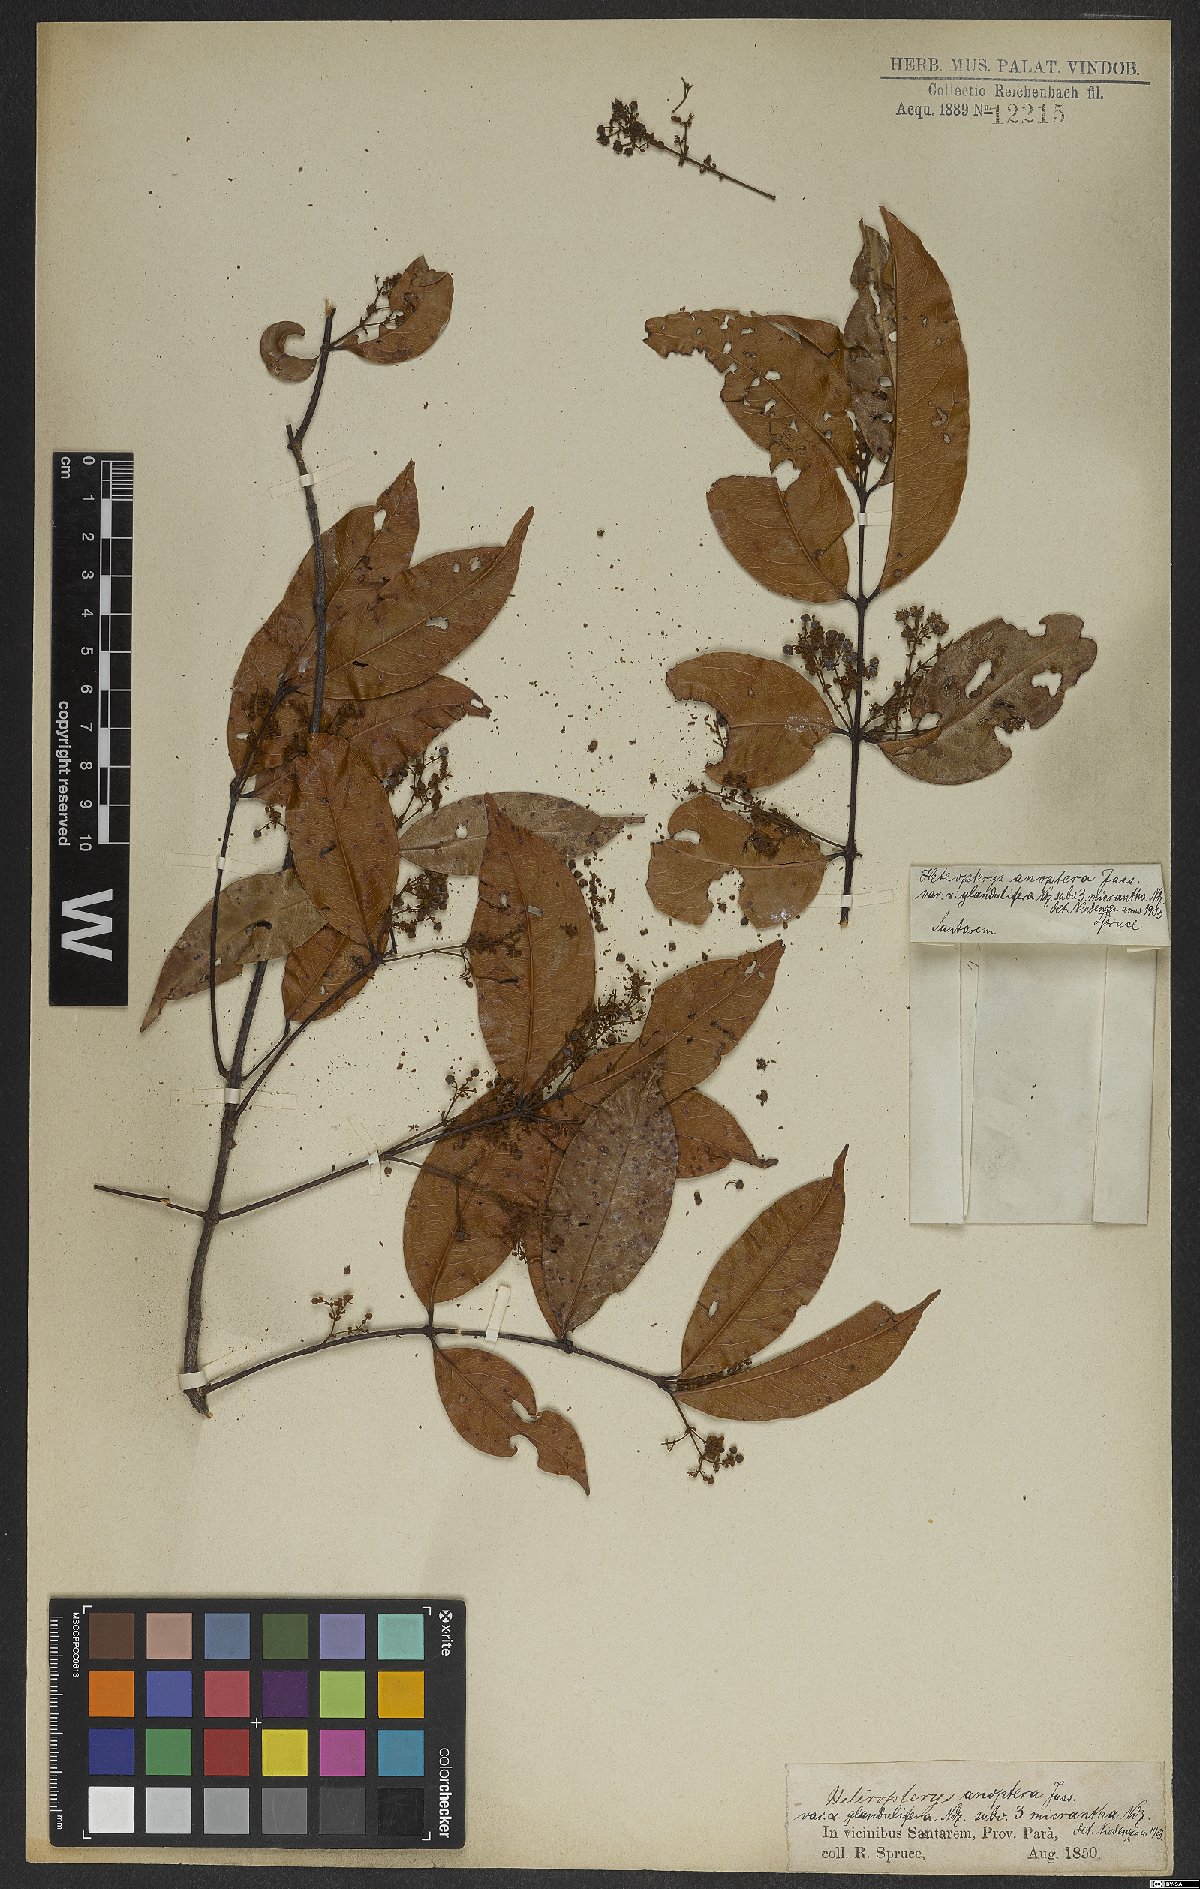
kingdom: Plantae
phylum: Tracheophyta
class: Magnoliopsida
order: Malpighiales
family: Malpighiaceae
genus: Heteropterys
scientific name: Heteropterys anoptera
